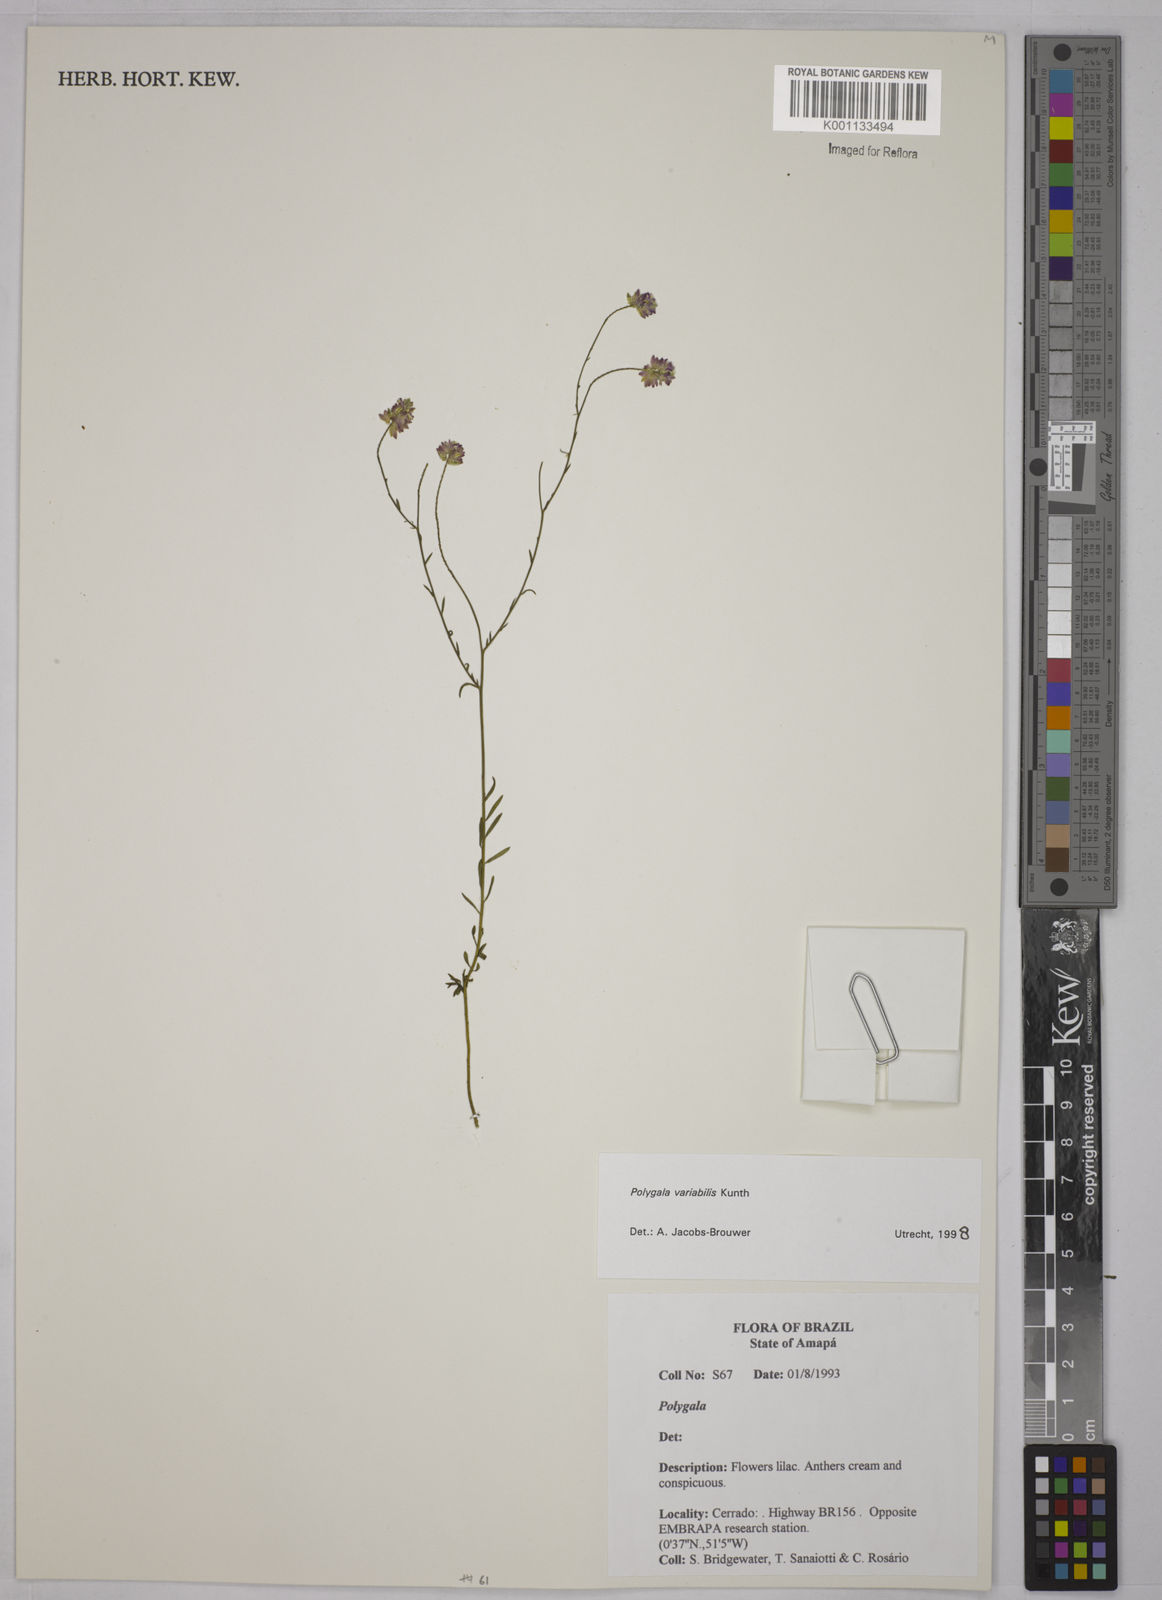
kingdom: Plantae
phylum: Tracheophyta
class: Magnoliopsida
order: Fabales
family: Polygalaceae
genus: Polygala
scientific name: Polygala trichosperma
